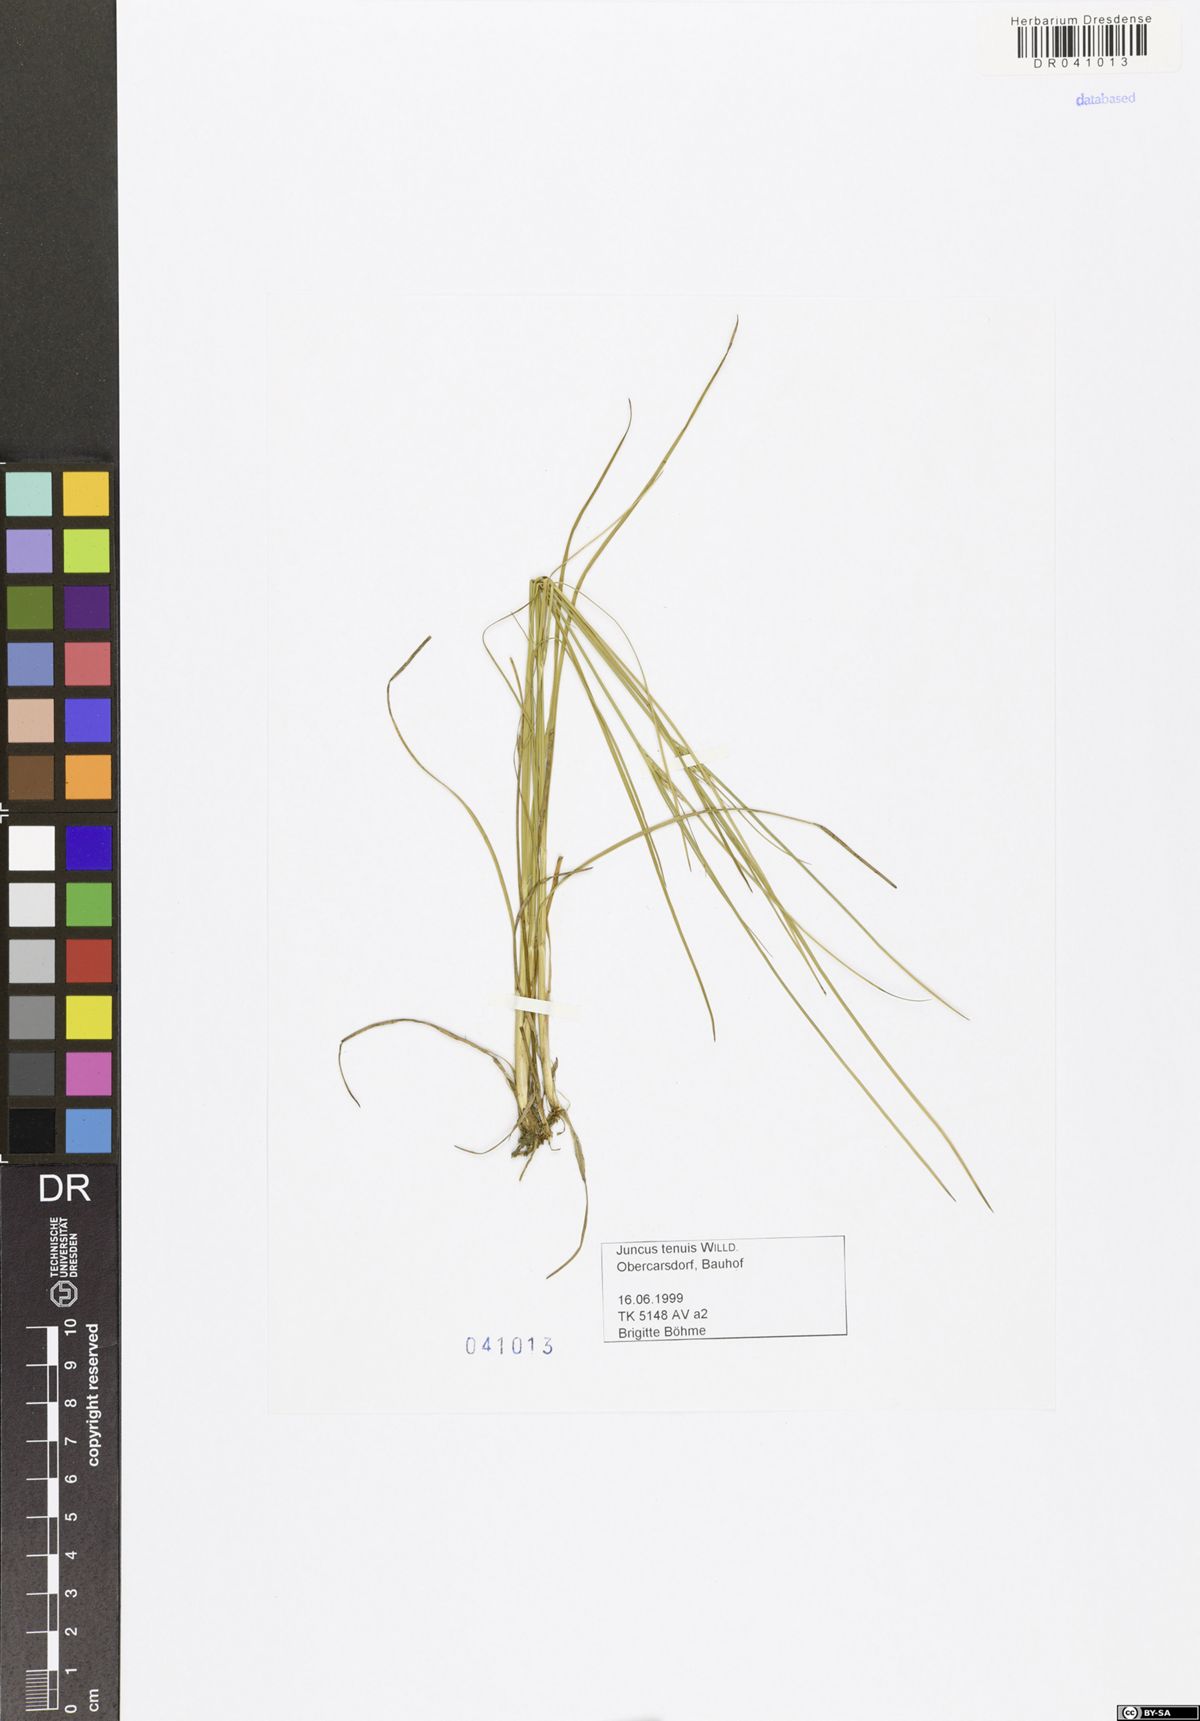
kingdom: Plantae
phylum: Tracheophyta
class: Liliopsida
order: Poales
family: Juncaceae
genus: Juncus
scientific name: Juncus tenuis
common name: Slender rush
